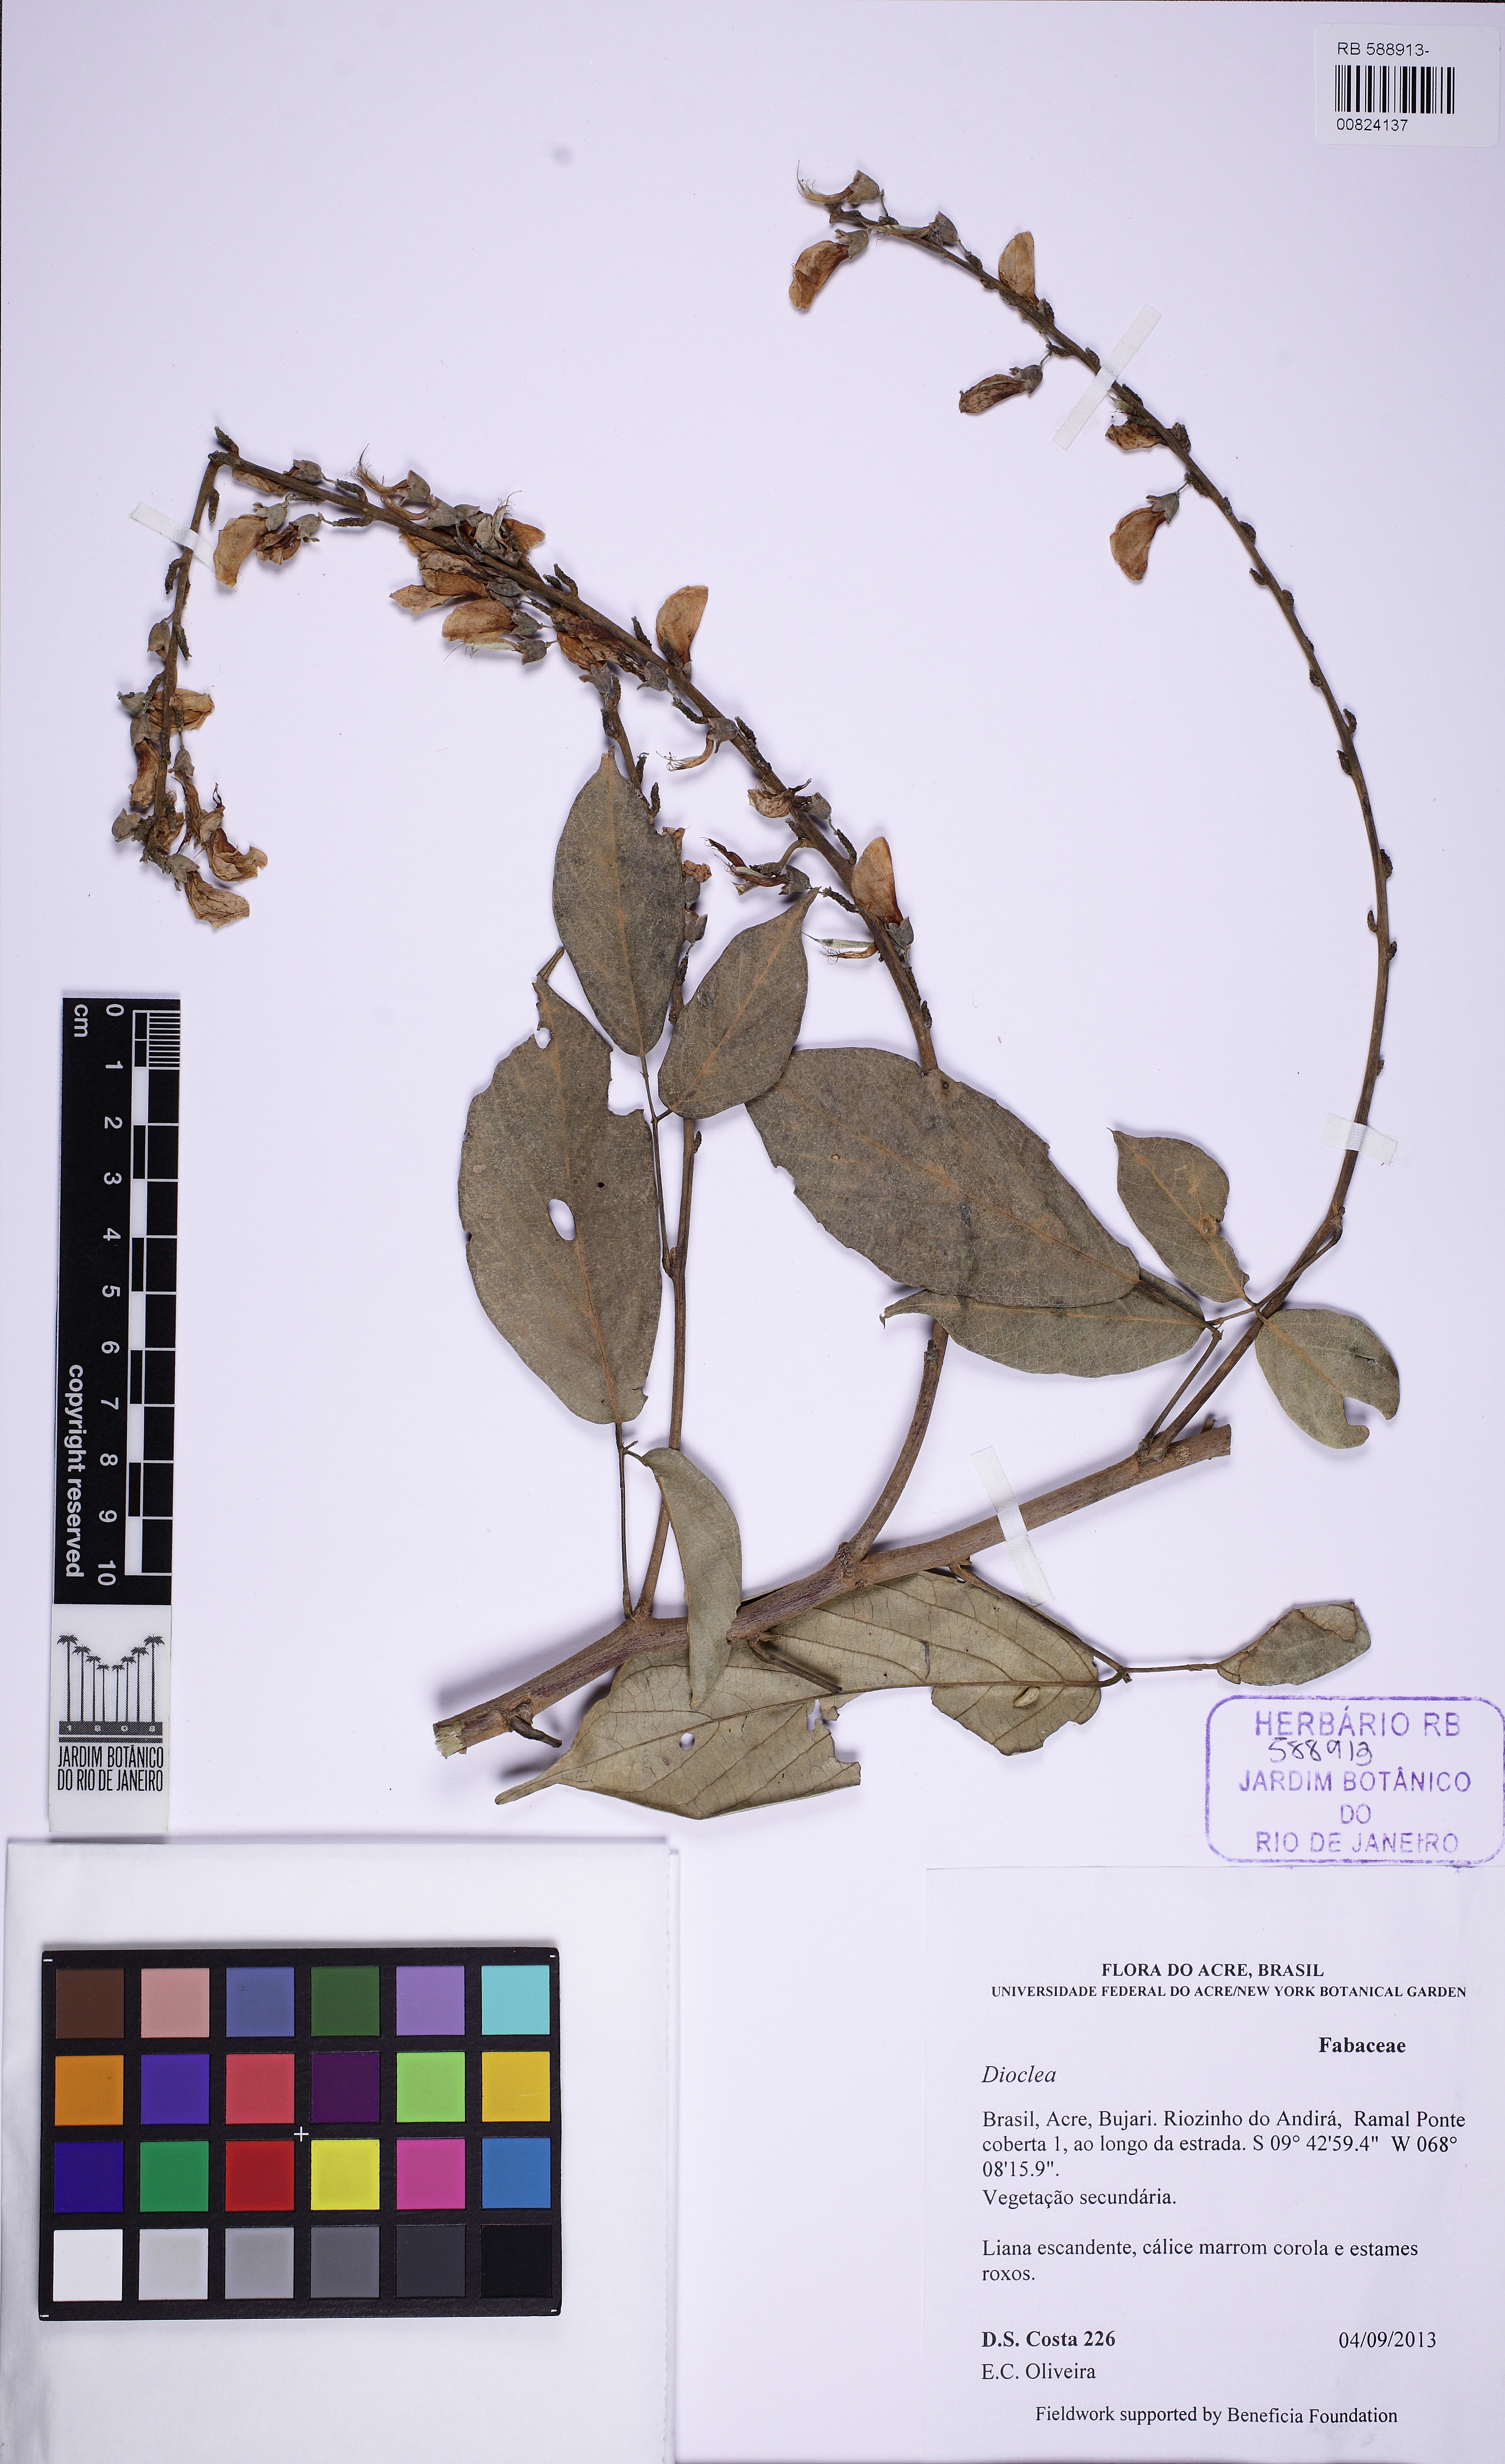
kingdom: Plantae
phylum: Tracheophyta
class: Magnoliopsida
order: Fabales
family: Fabaceae
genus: Cratylia
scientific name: Cratylia argentea
